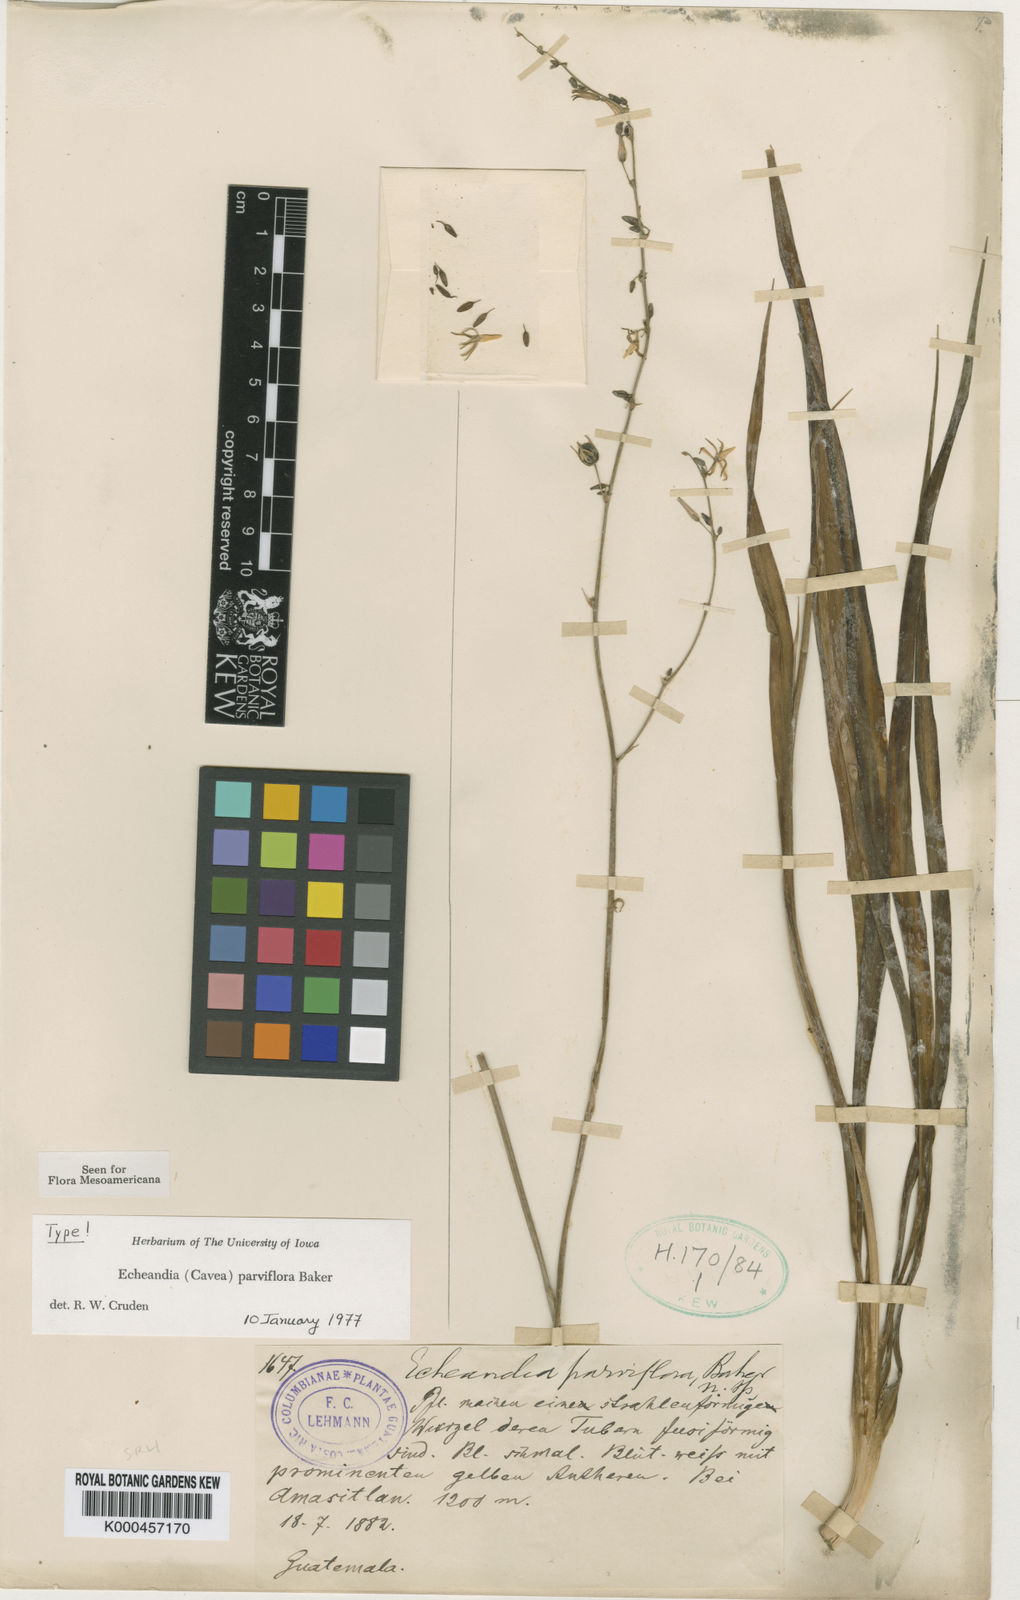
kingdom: Plantae
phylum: Tracheophyta
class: Liliopsida
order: Asparagales
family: Asparagaceae
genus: Echeandia
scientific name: Echeandia parviflora
